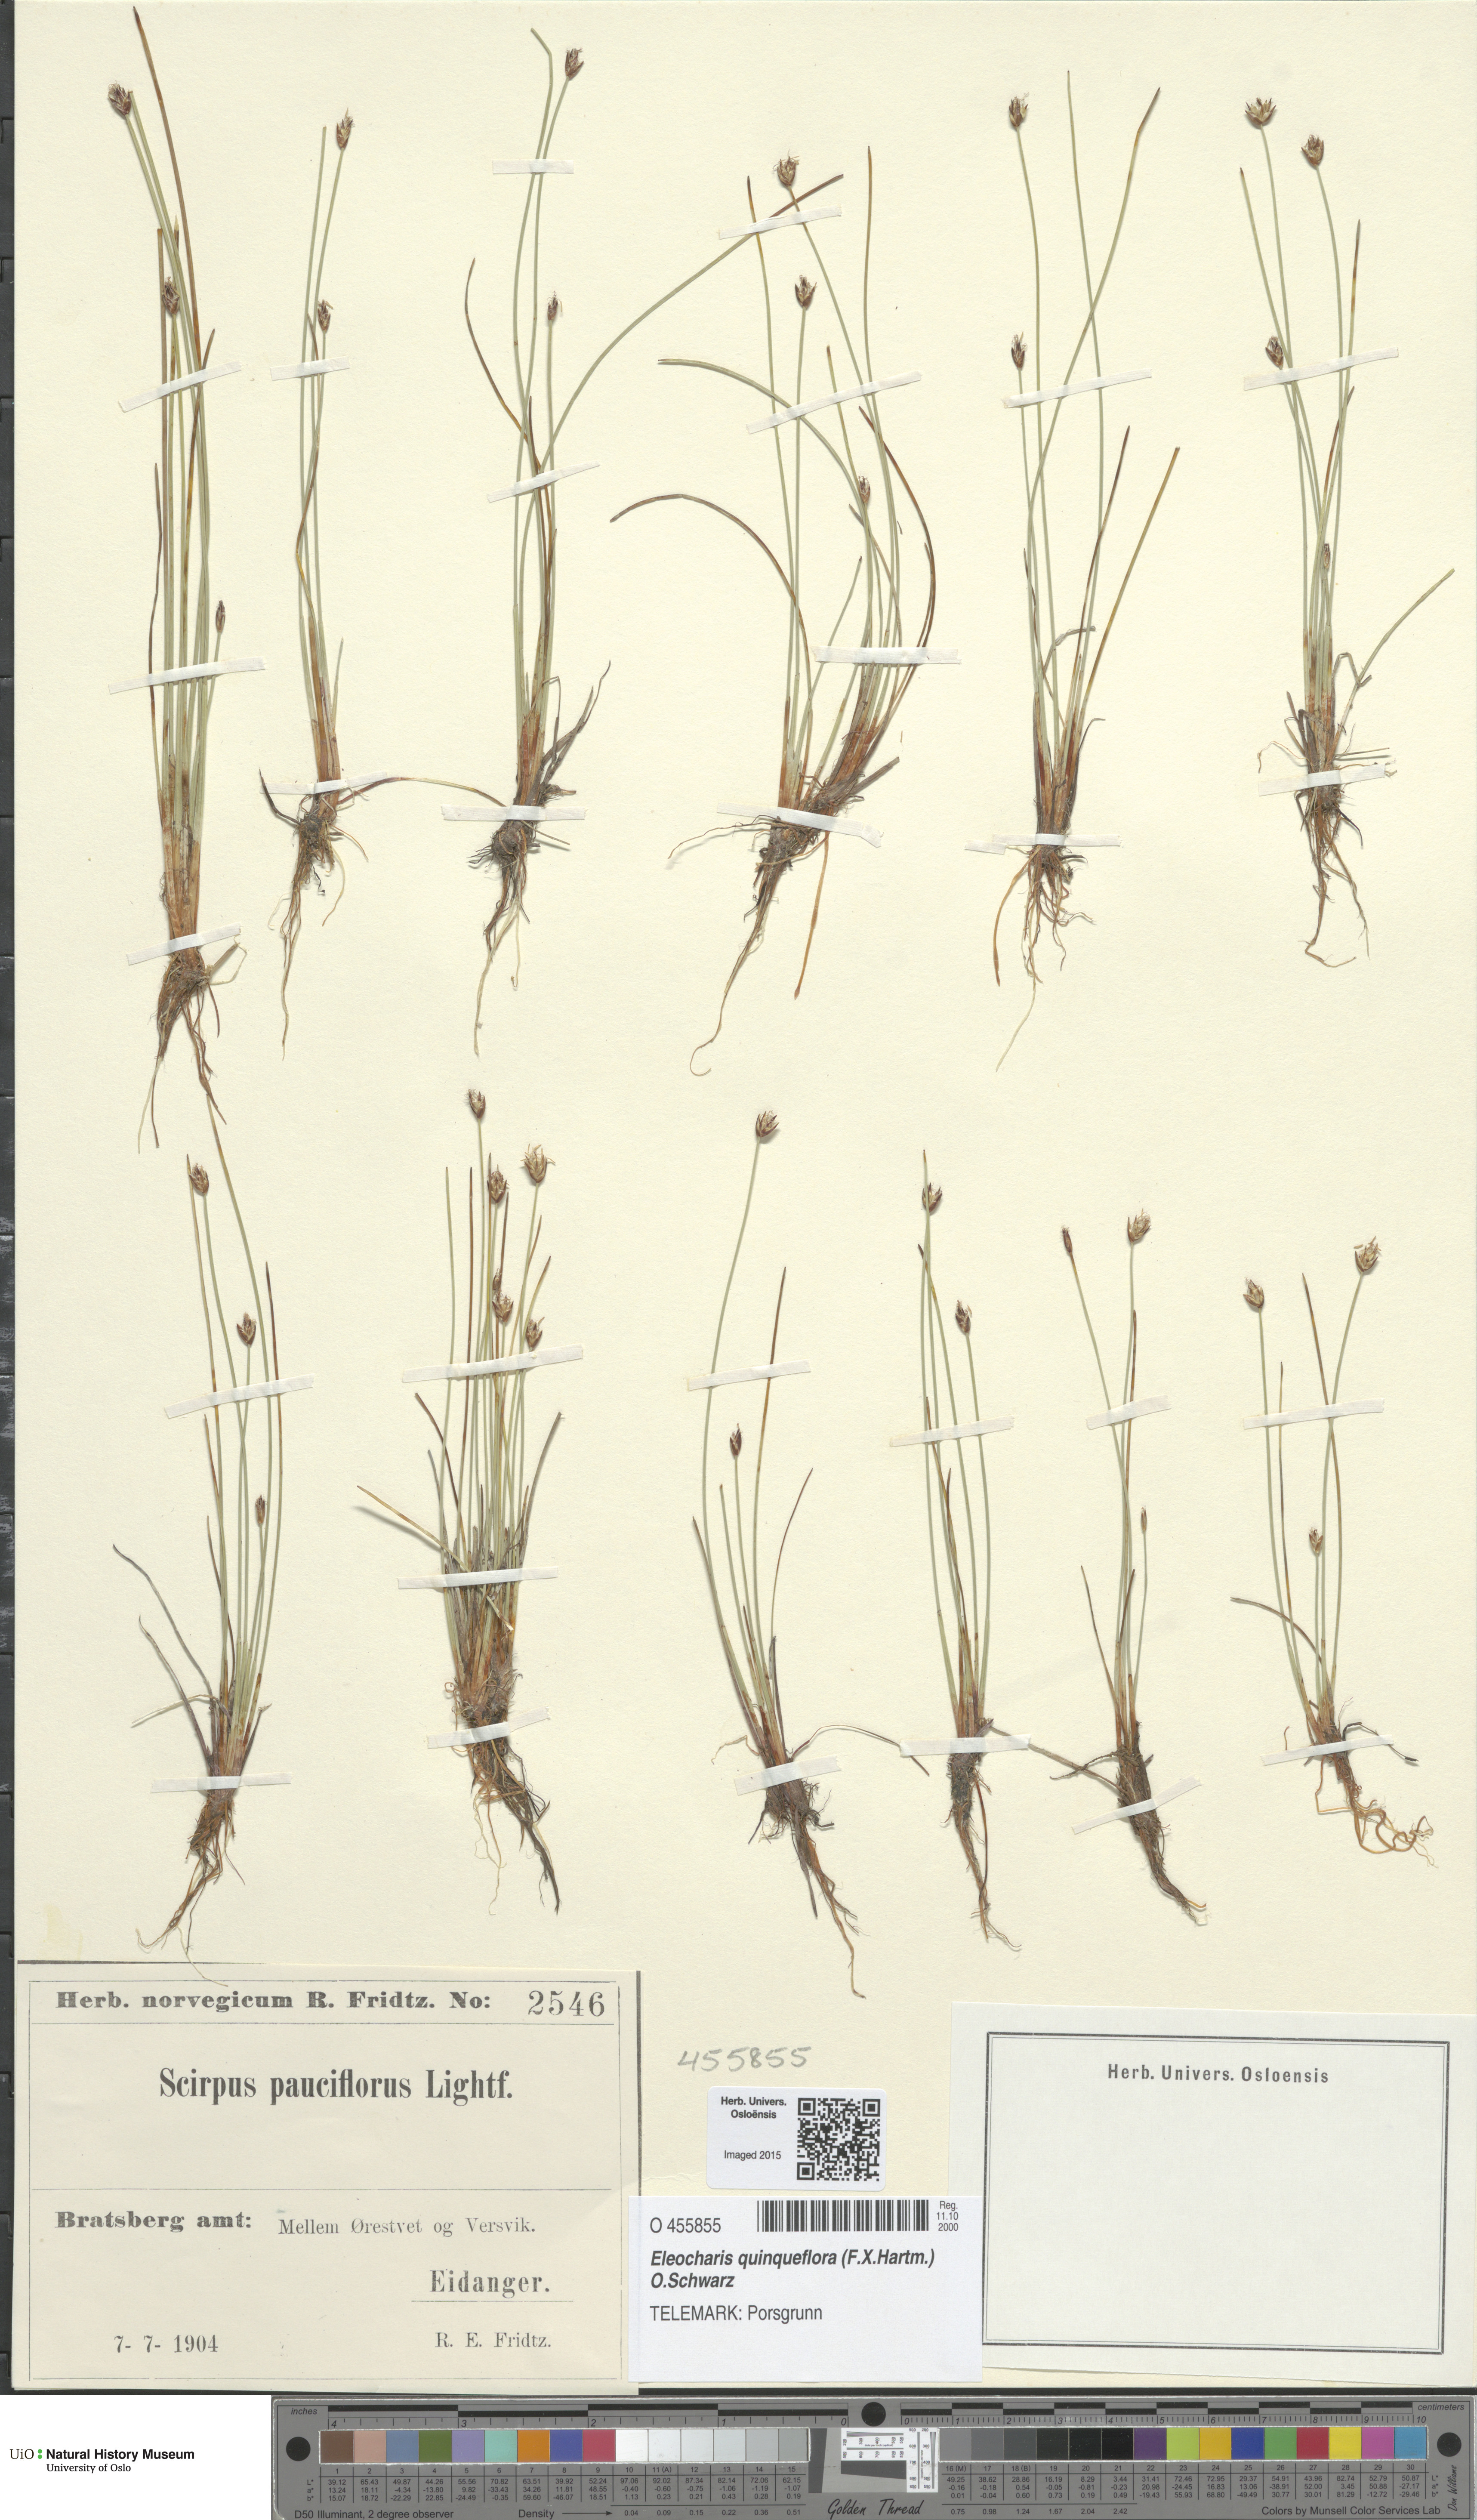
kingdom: Plantae
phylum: Tracheophyta
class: Liliopsida
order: Poales
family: Cyperaceae
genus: Eleocharis
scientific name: Eleocharis quinqueflora
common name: Few-flowered spike-rush
